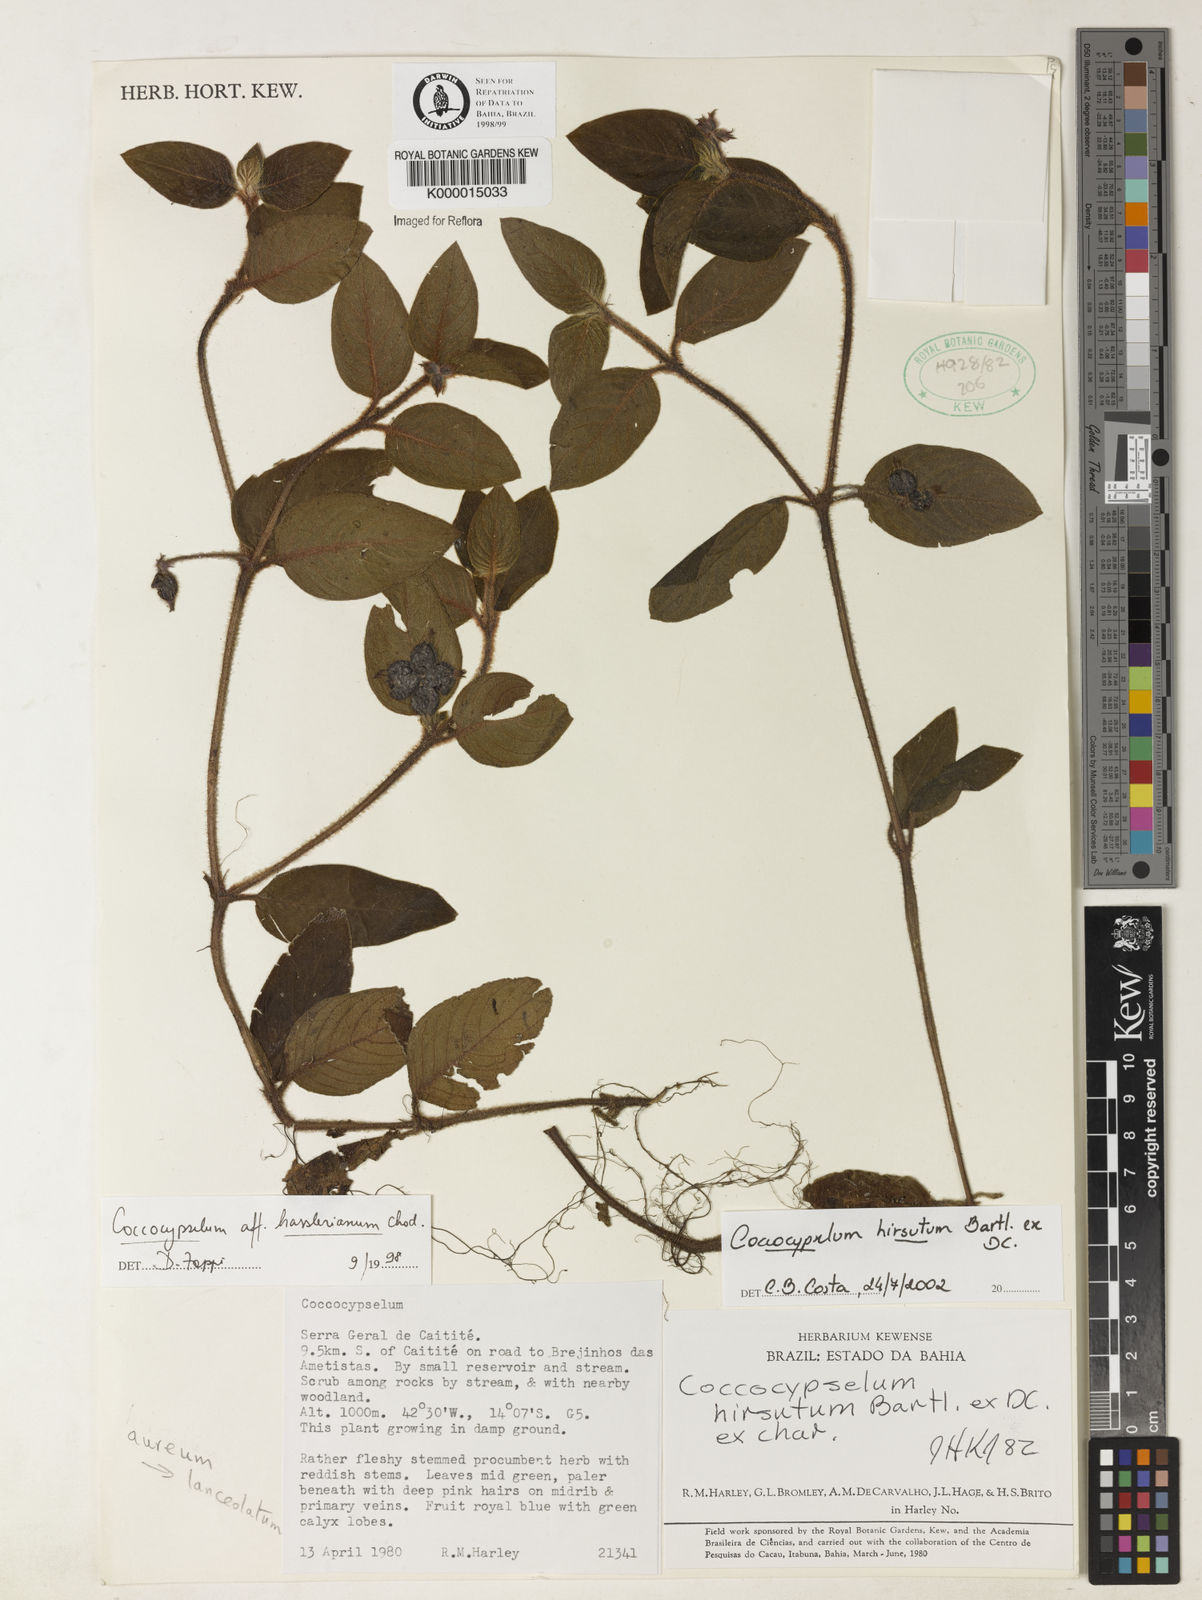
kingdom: Plantae
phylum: Tracheophyta
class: Magnoliopsida
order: Gentianales
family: Rubiaceae
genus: Coccocypselum
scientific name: Coccocypselum hirsutum
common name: Yerba de guava
